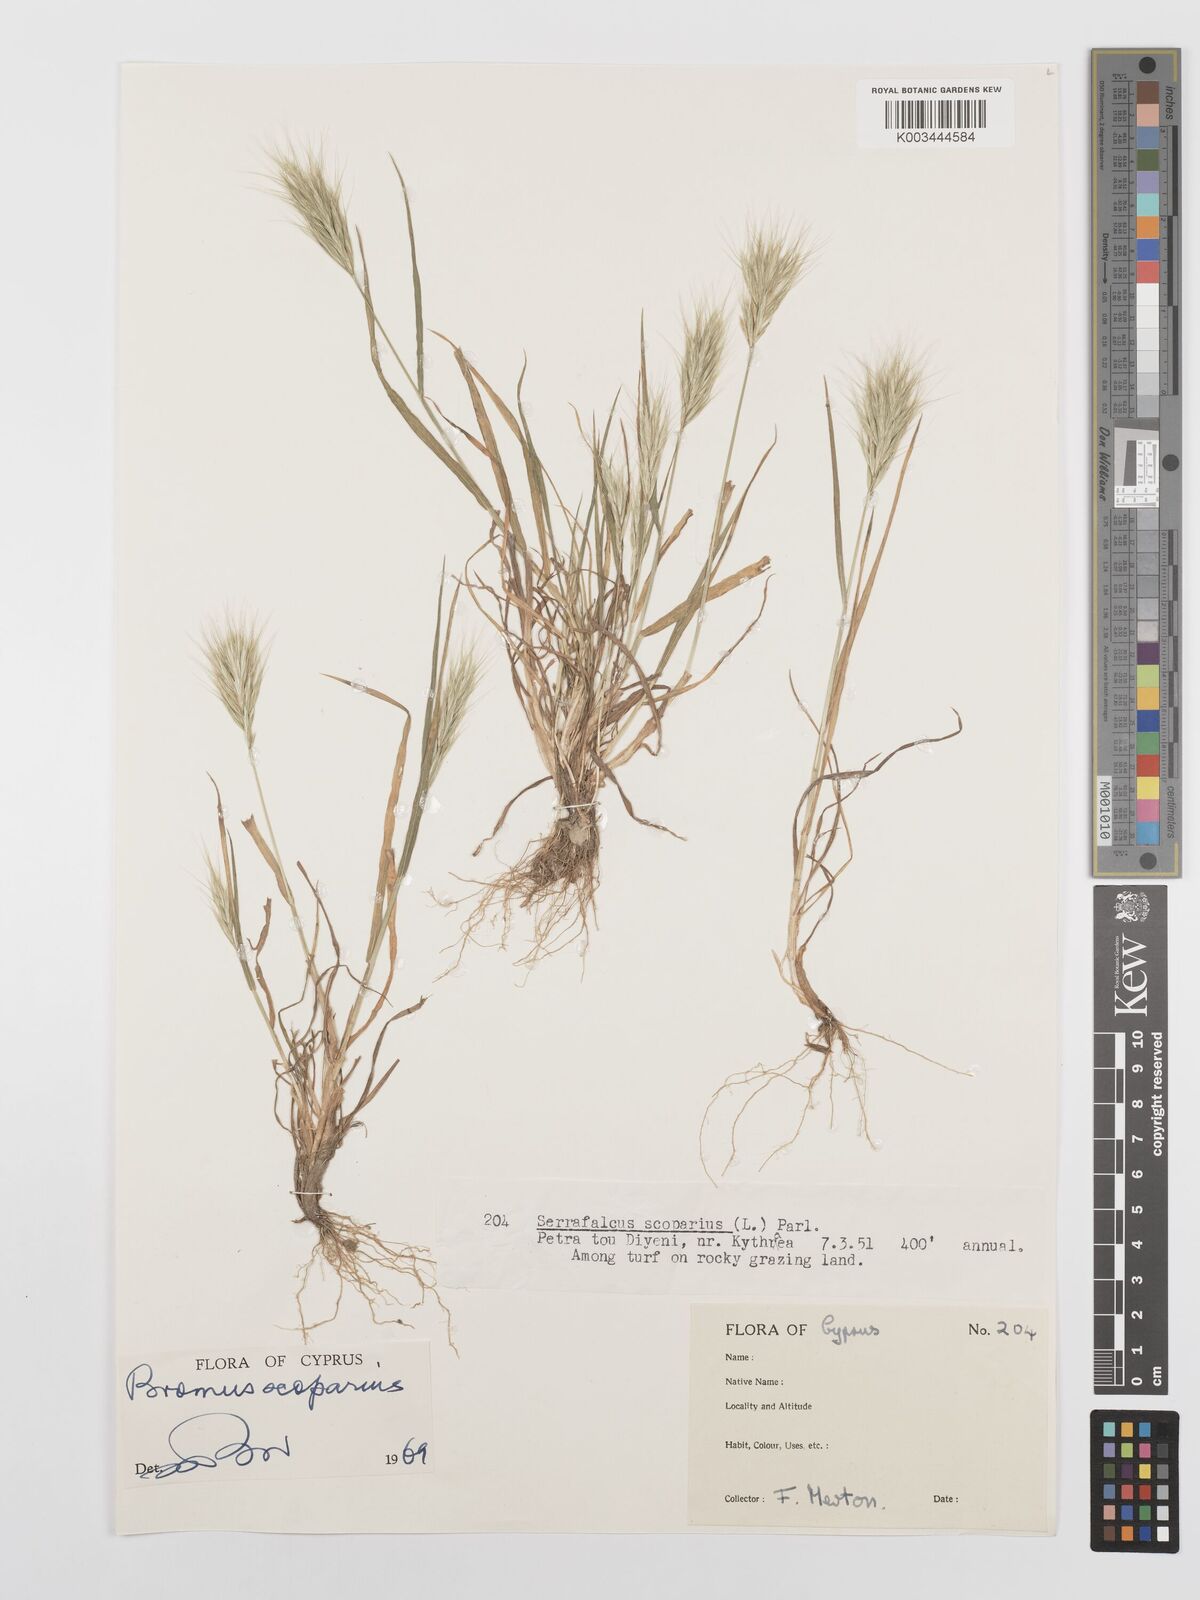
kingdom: Plantae
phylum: Tracheophyta
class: Liliopsida
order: Poales
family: Poaceae
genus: Bromus
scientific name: Bromus scoparius
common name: Broom brome
